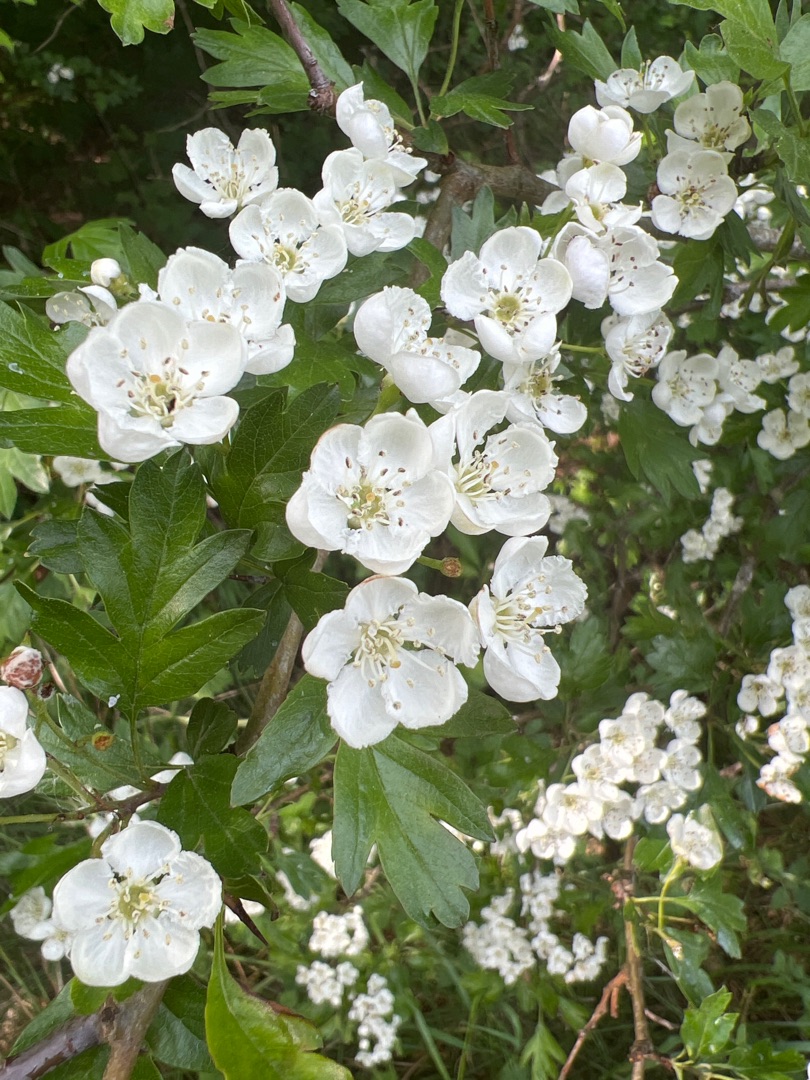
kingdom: Plantae
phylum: Tracheophyta
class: Magnoliopsida
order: Rosales
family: Rosaceae
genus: Crataegus
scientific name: Crataegus monogyna
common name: Engriflet hvidtjørn
